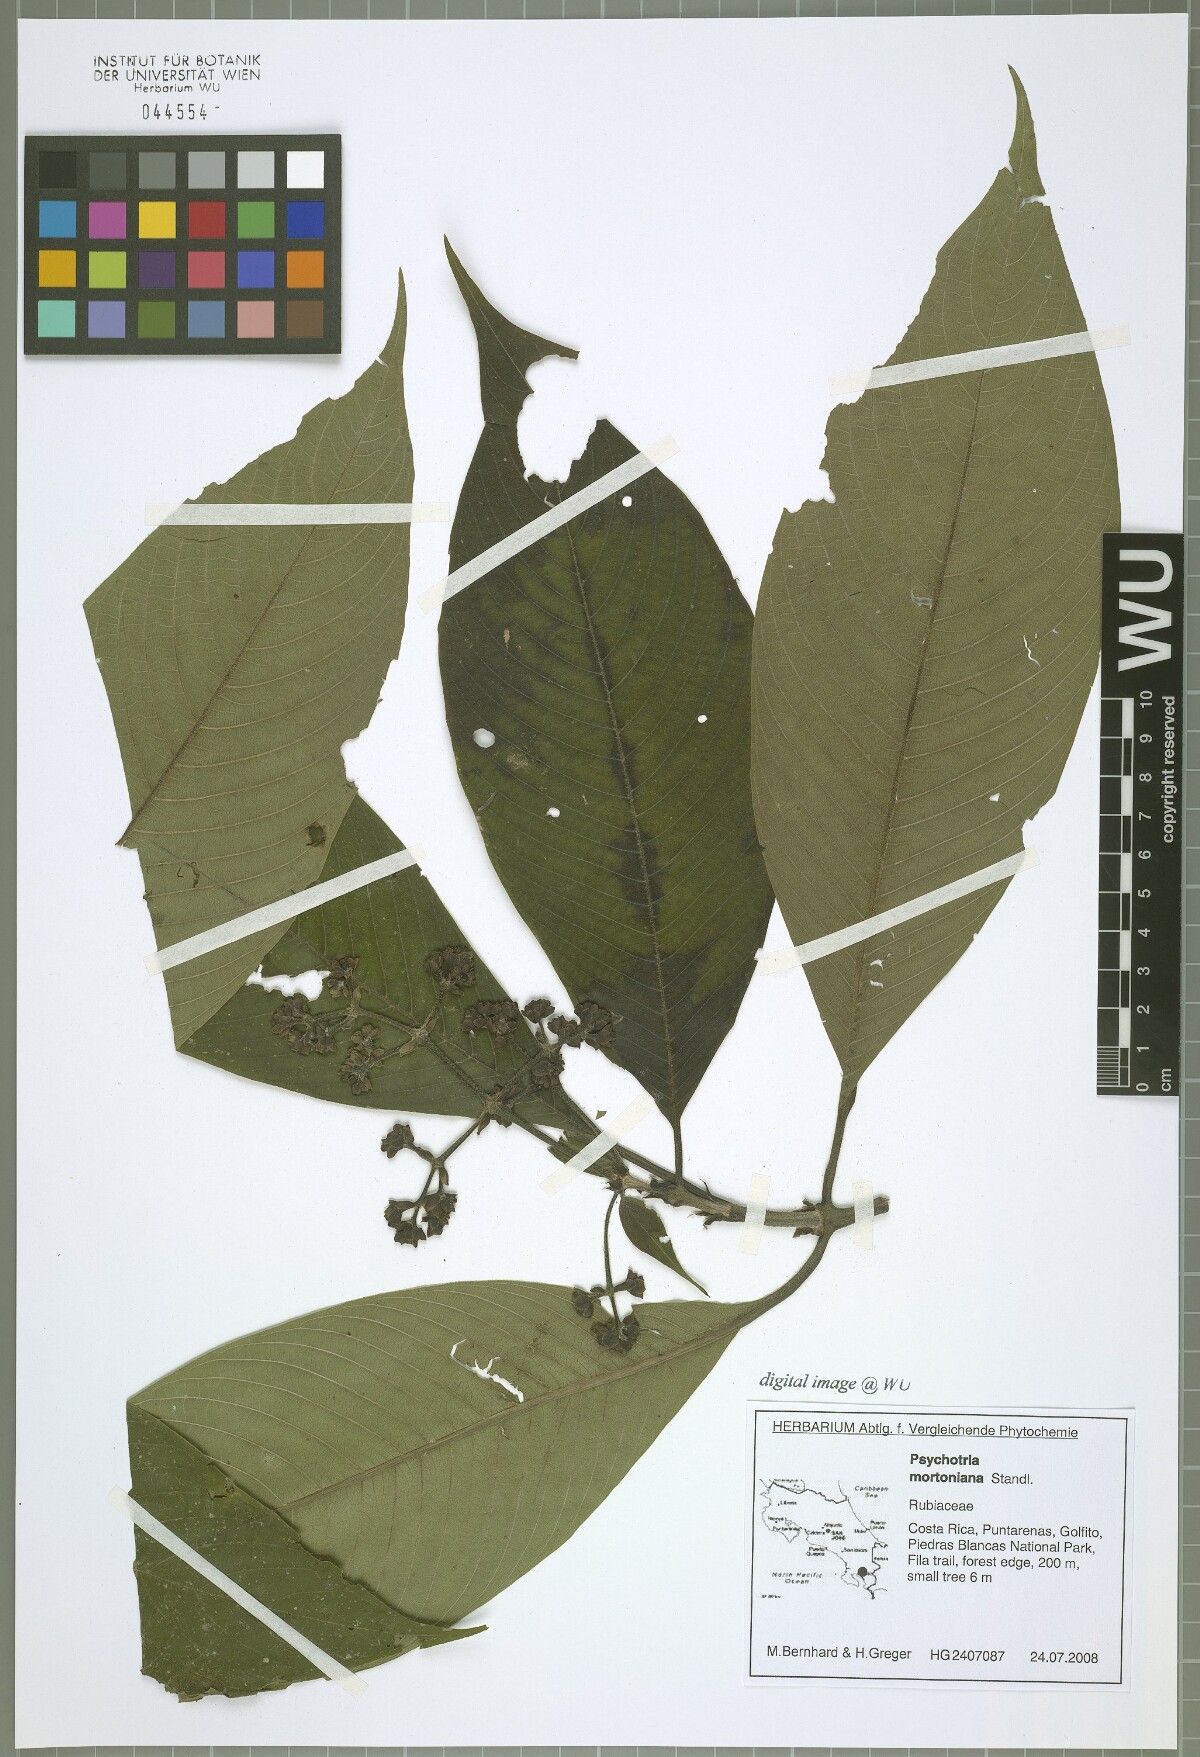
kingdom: Plantae
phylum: Tracheophyta
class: Magnoliopsida
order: Gentianales
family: Rubiaceae
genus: Palicourea
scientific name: Palicourea mortoniana
